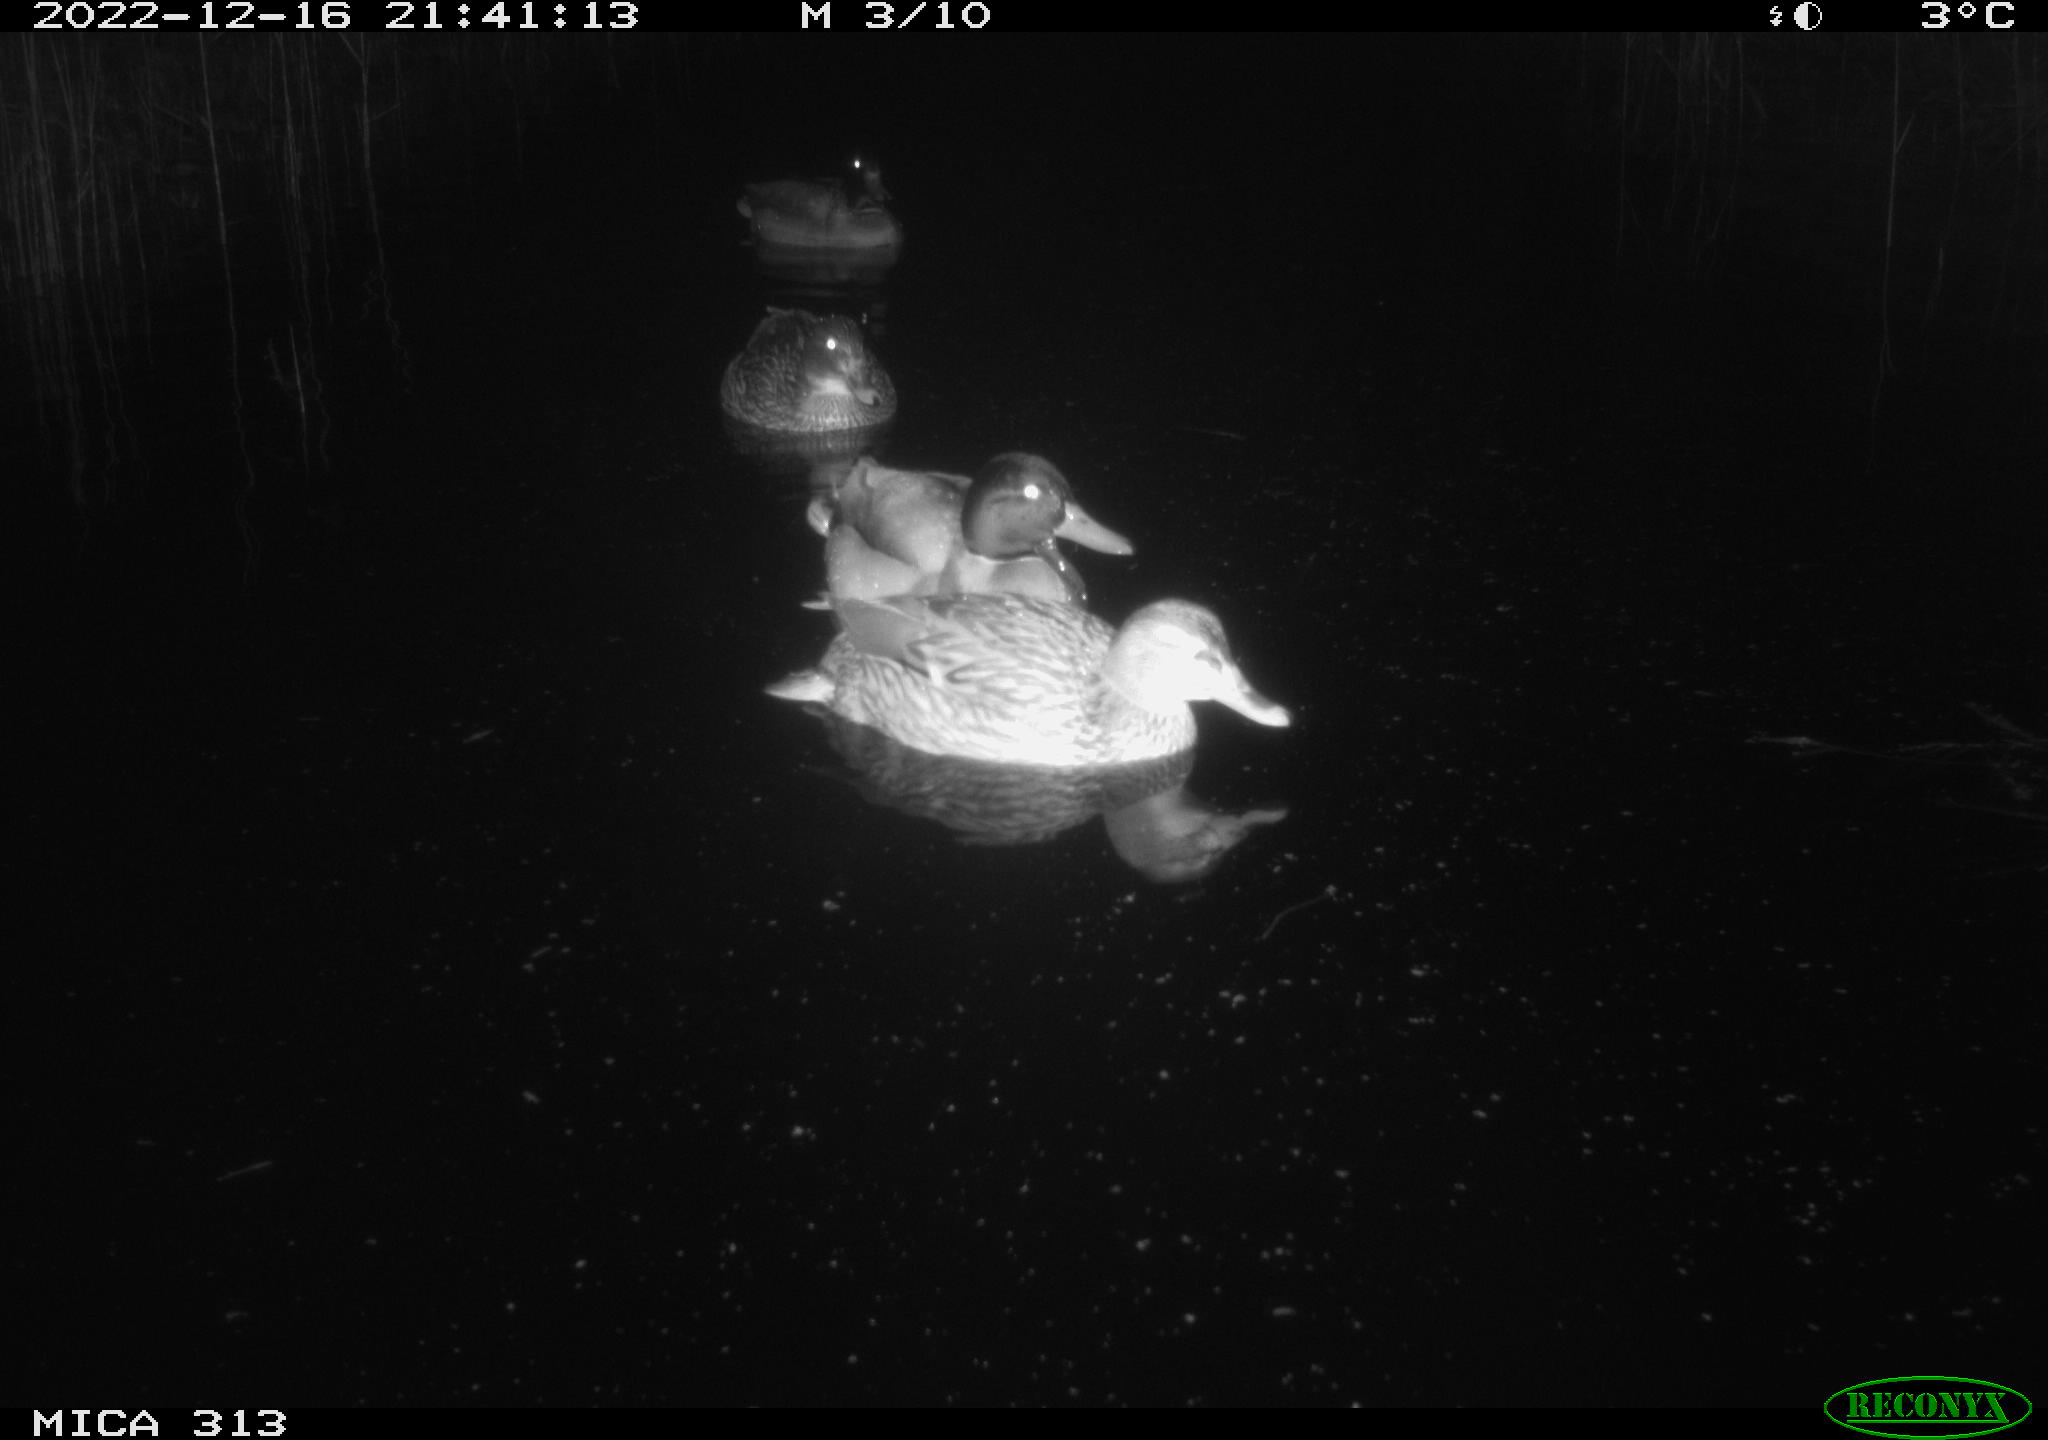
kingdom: Animalia
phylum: Chordata
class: Aves
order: Anseriformes
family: Anatidae
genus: Anas
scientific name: Anas
